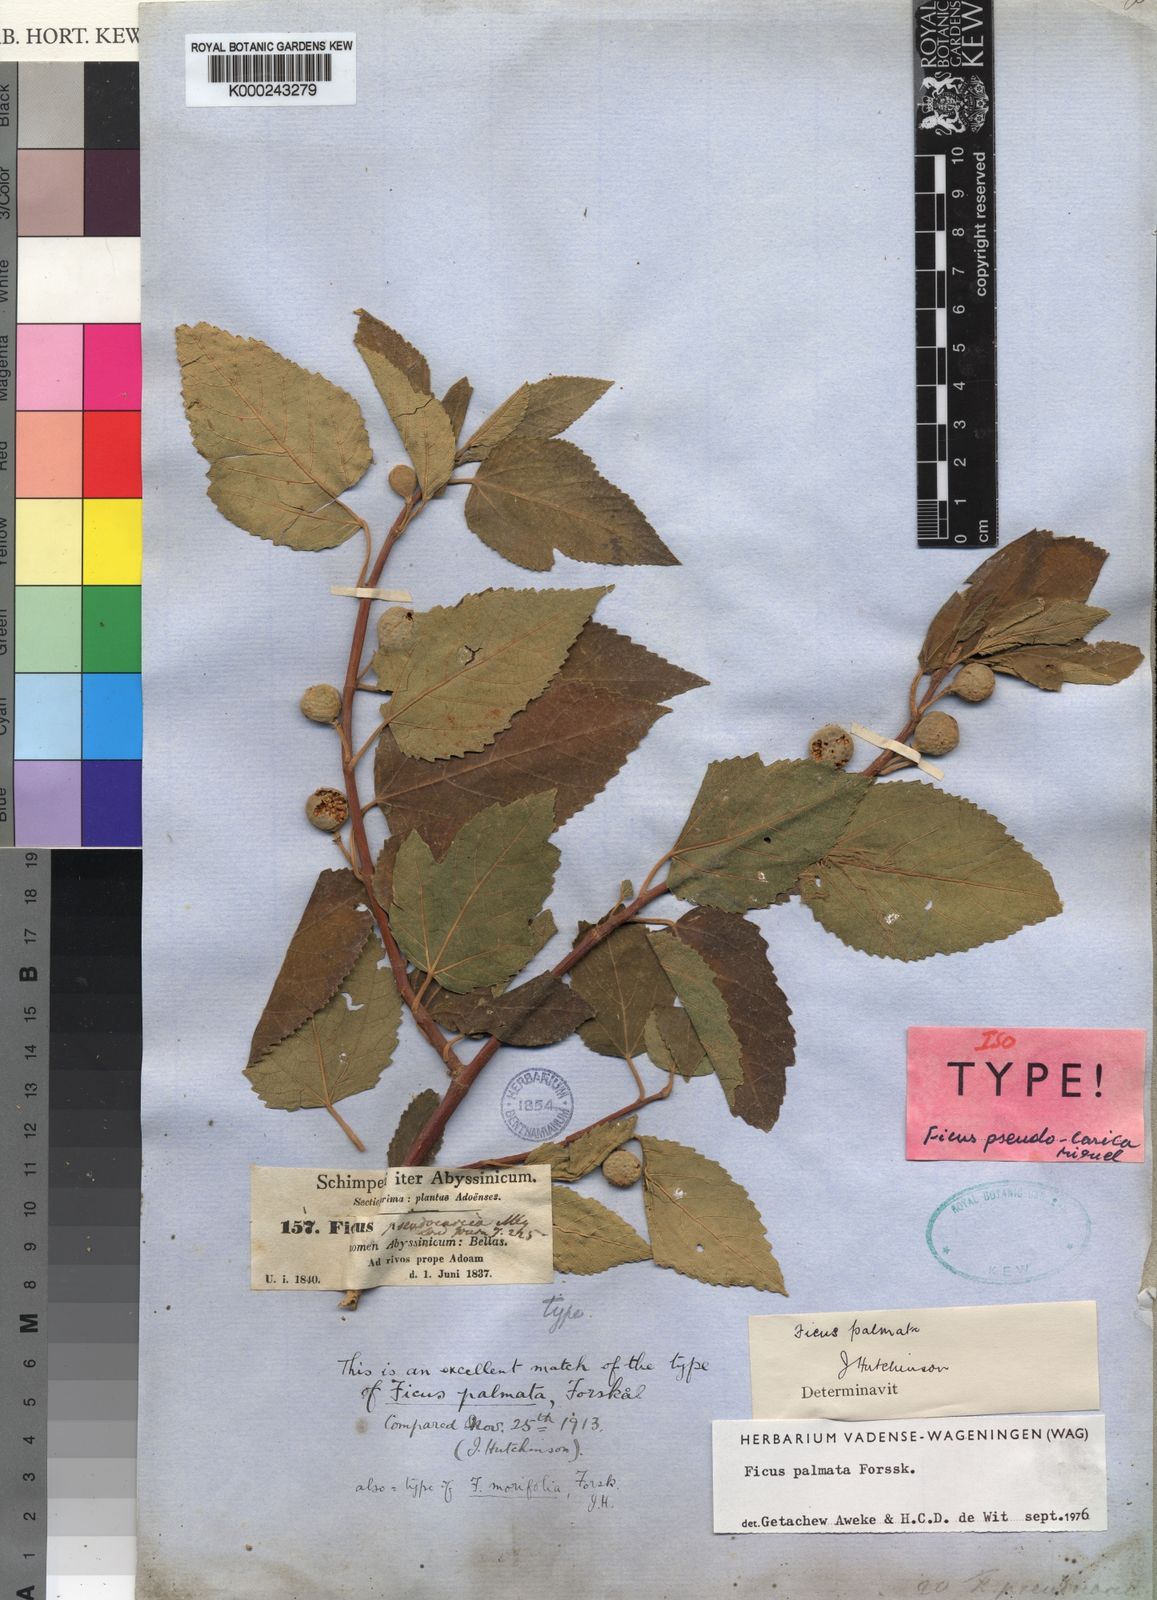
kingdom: Plantae
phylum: Tracheophyta
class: Magnoliopsida
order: Rosales
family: Moraceae
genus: Ficus
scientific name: Ficus palmata
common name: Punjab fig
